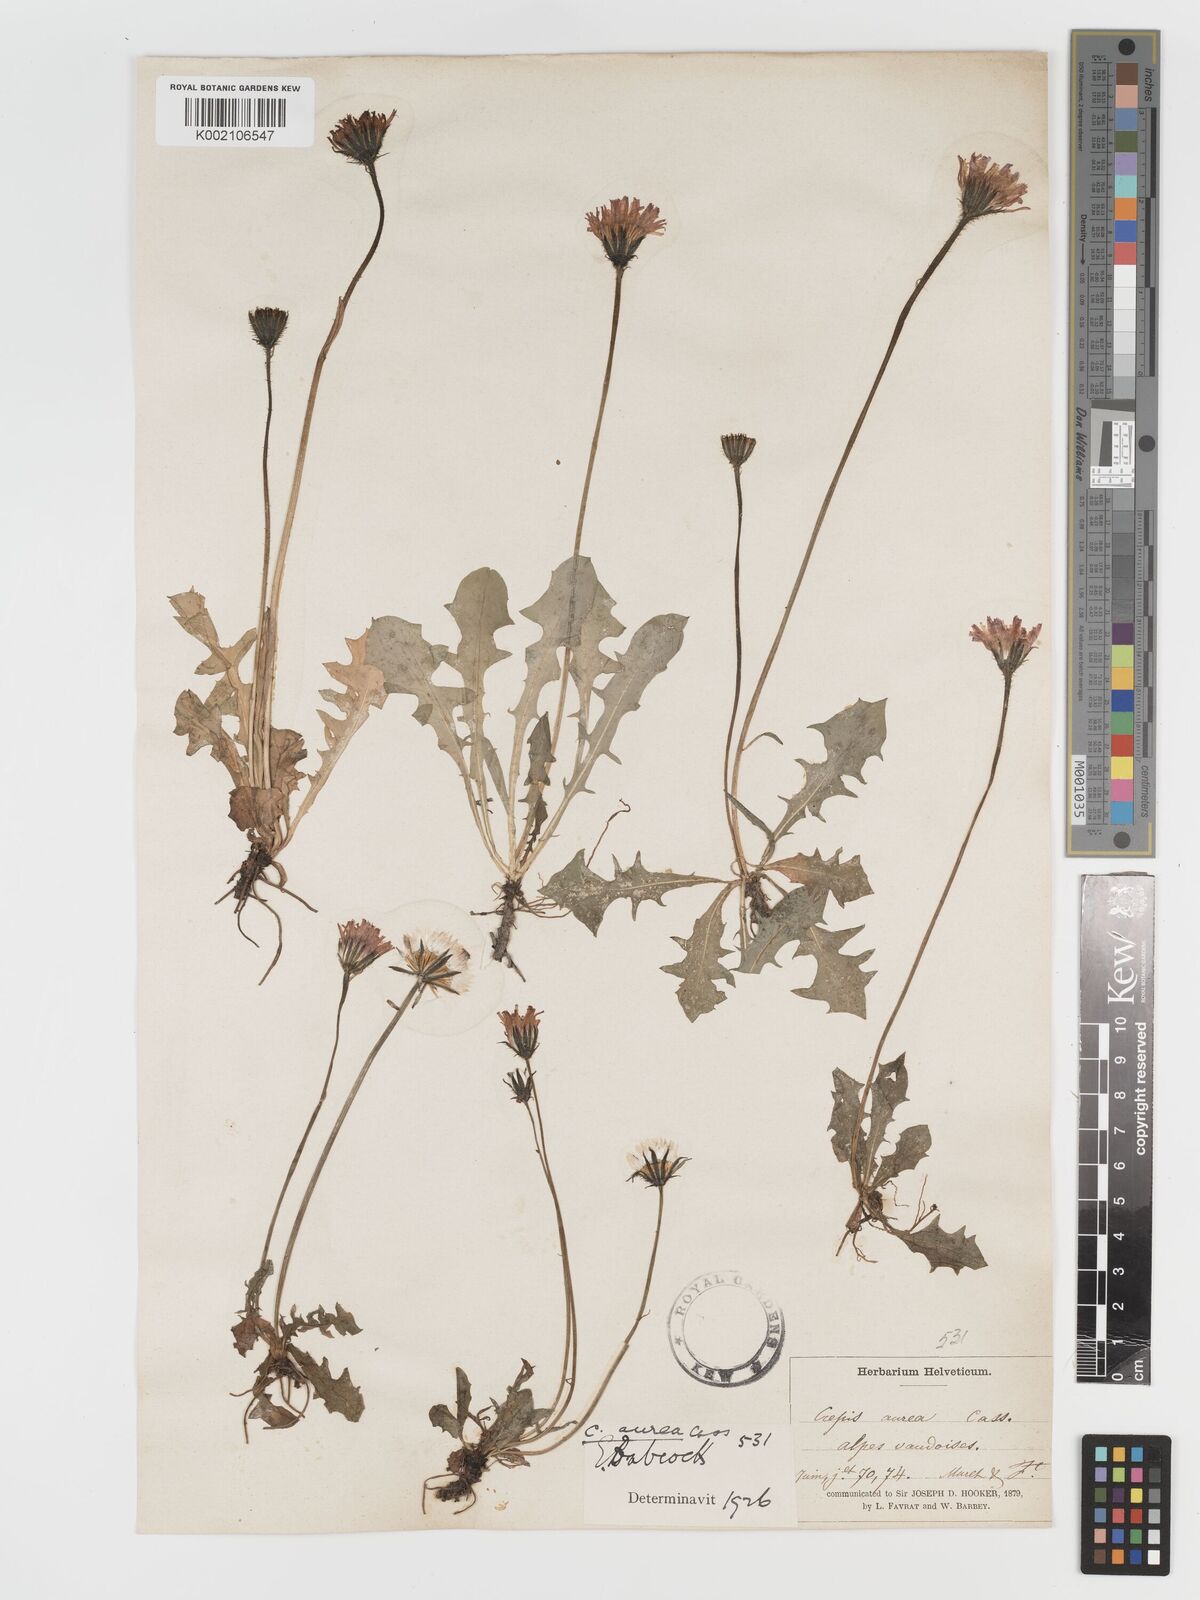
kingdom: Plantae
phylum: Tracheophyta
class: Magnoliopsida
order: Asterales
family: Asteraceae
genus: Crepis
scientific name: Crepis aurea
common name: Golden hawk's-beard
